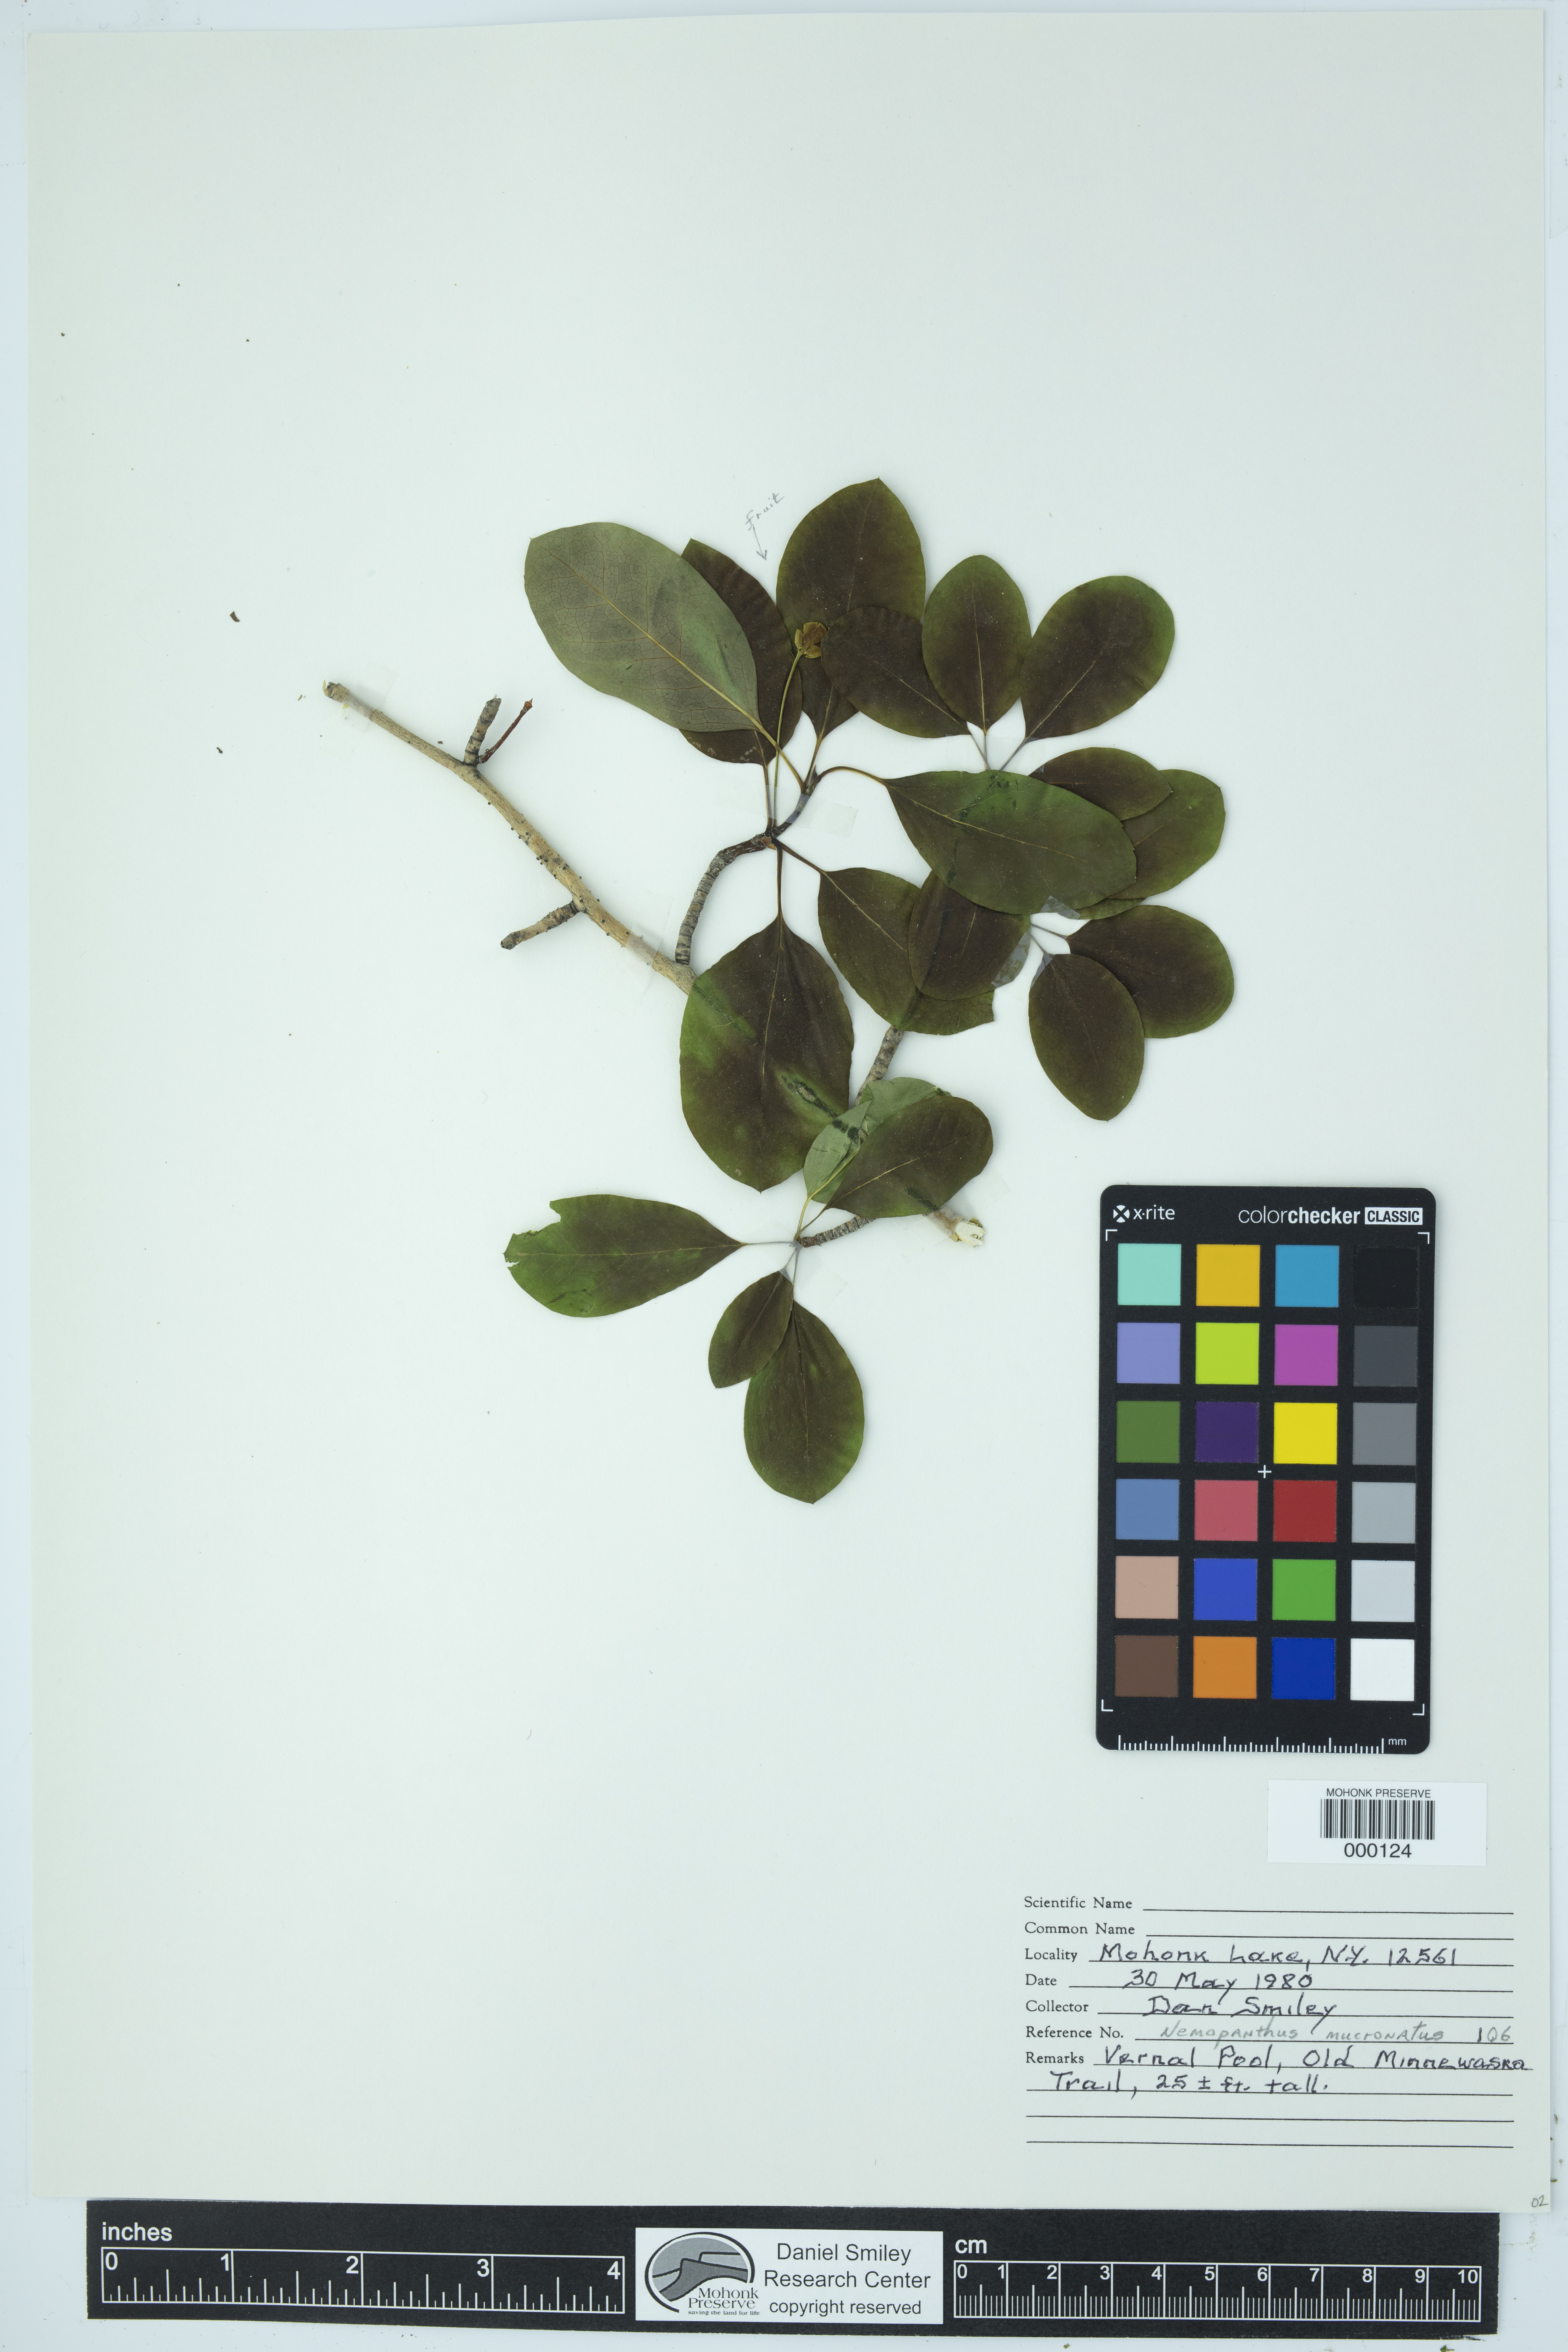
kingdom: Plantae
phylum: Tracheophyta
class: Magnoliopsida
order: Aquifoliales
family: Aquifoliaceae
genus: Ilex
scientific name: Ilex mucronata
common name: Catberry
